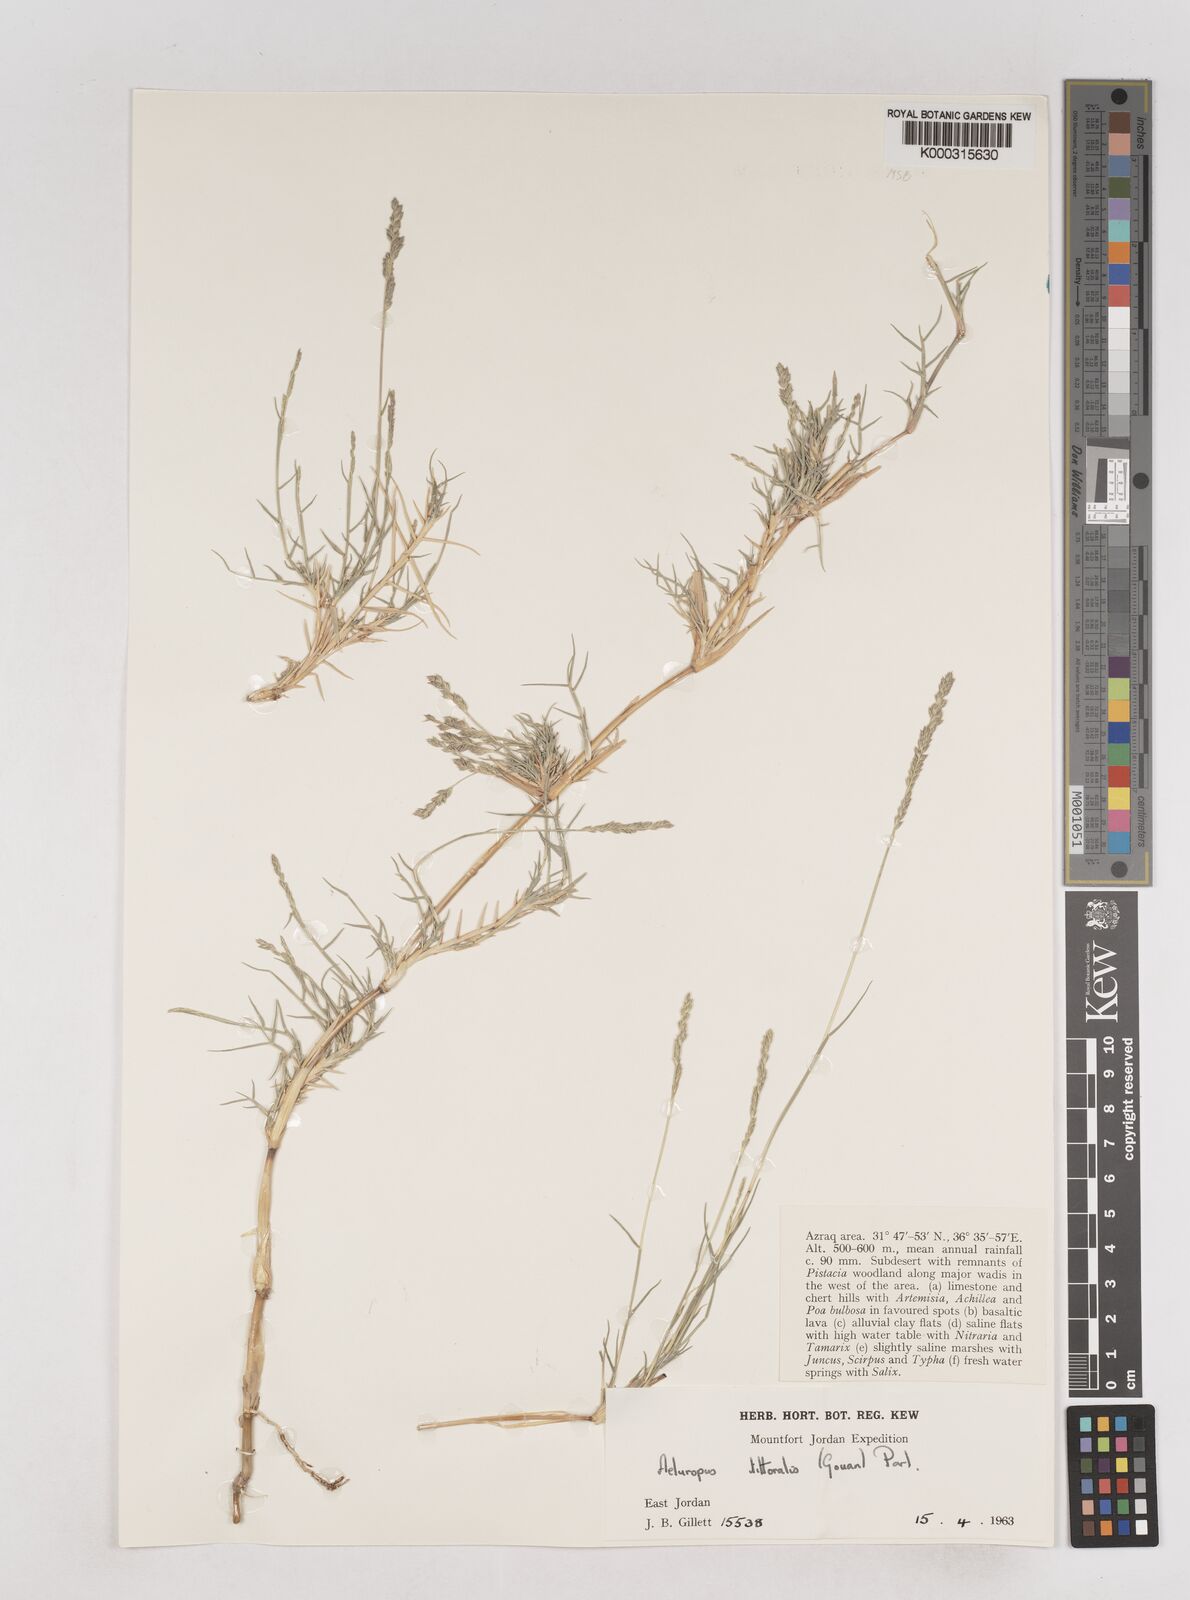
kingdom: Plantae
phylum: Tracheophyta
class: Liliopsida
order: Poales
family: Poaceae
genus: Aeluropus
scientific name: Aeluropus littoralis
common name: Indian walnut
